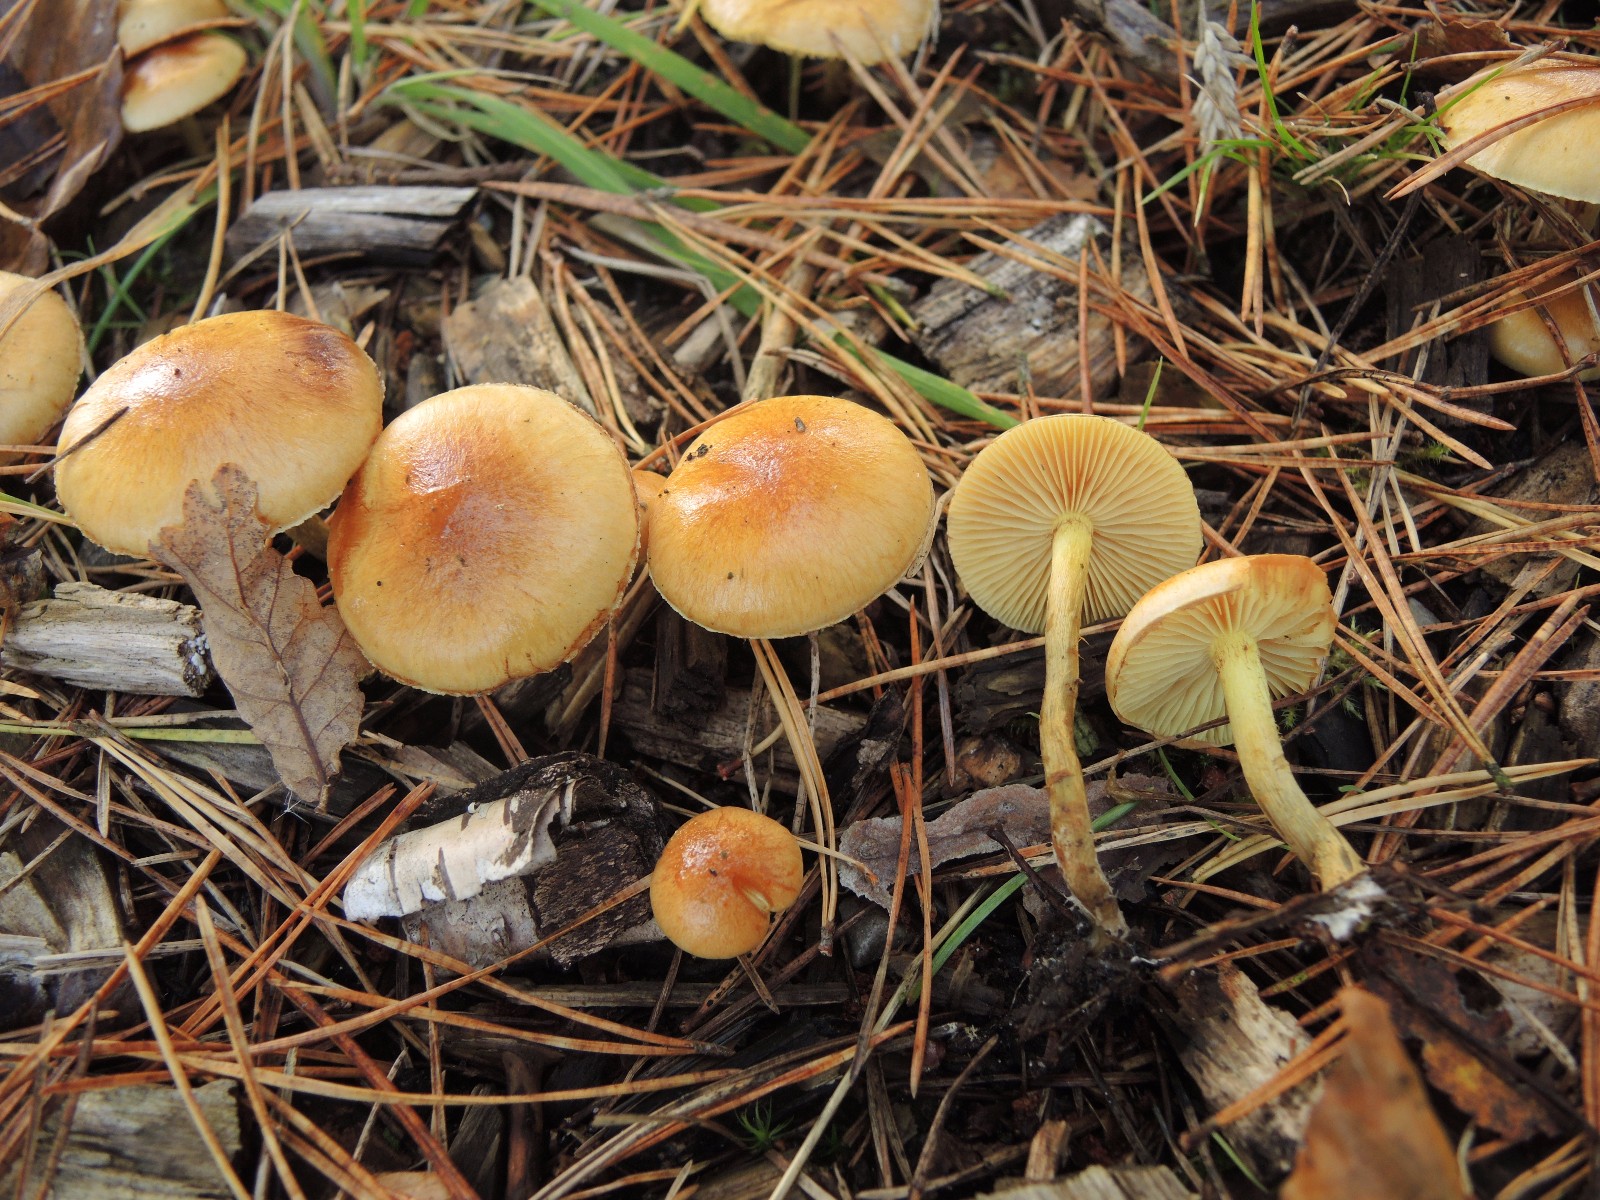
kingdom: Fungi
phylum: Basidiomycota
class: Agaricomycetes
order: Agaricales
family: Strophariaceae
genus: Pholiota
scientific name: Pholiota spumosa
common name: gran-skælhat
